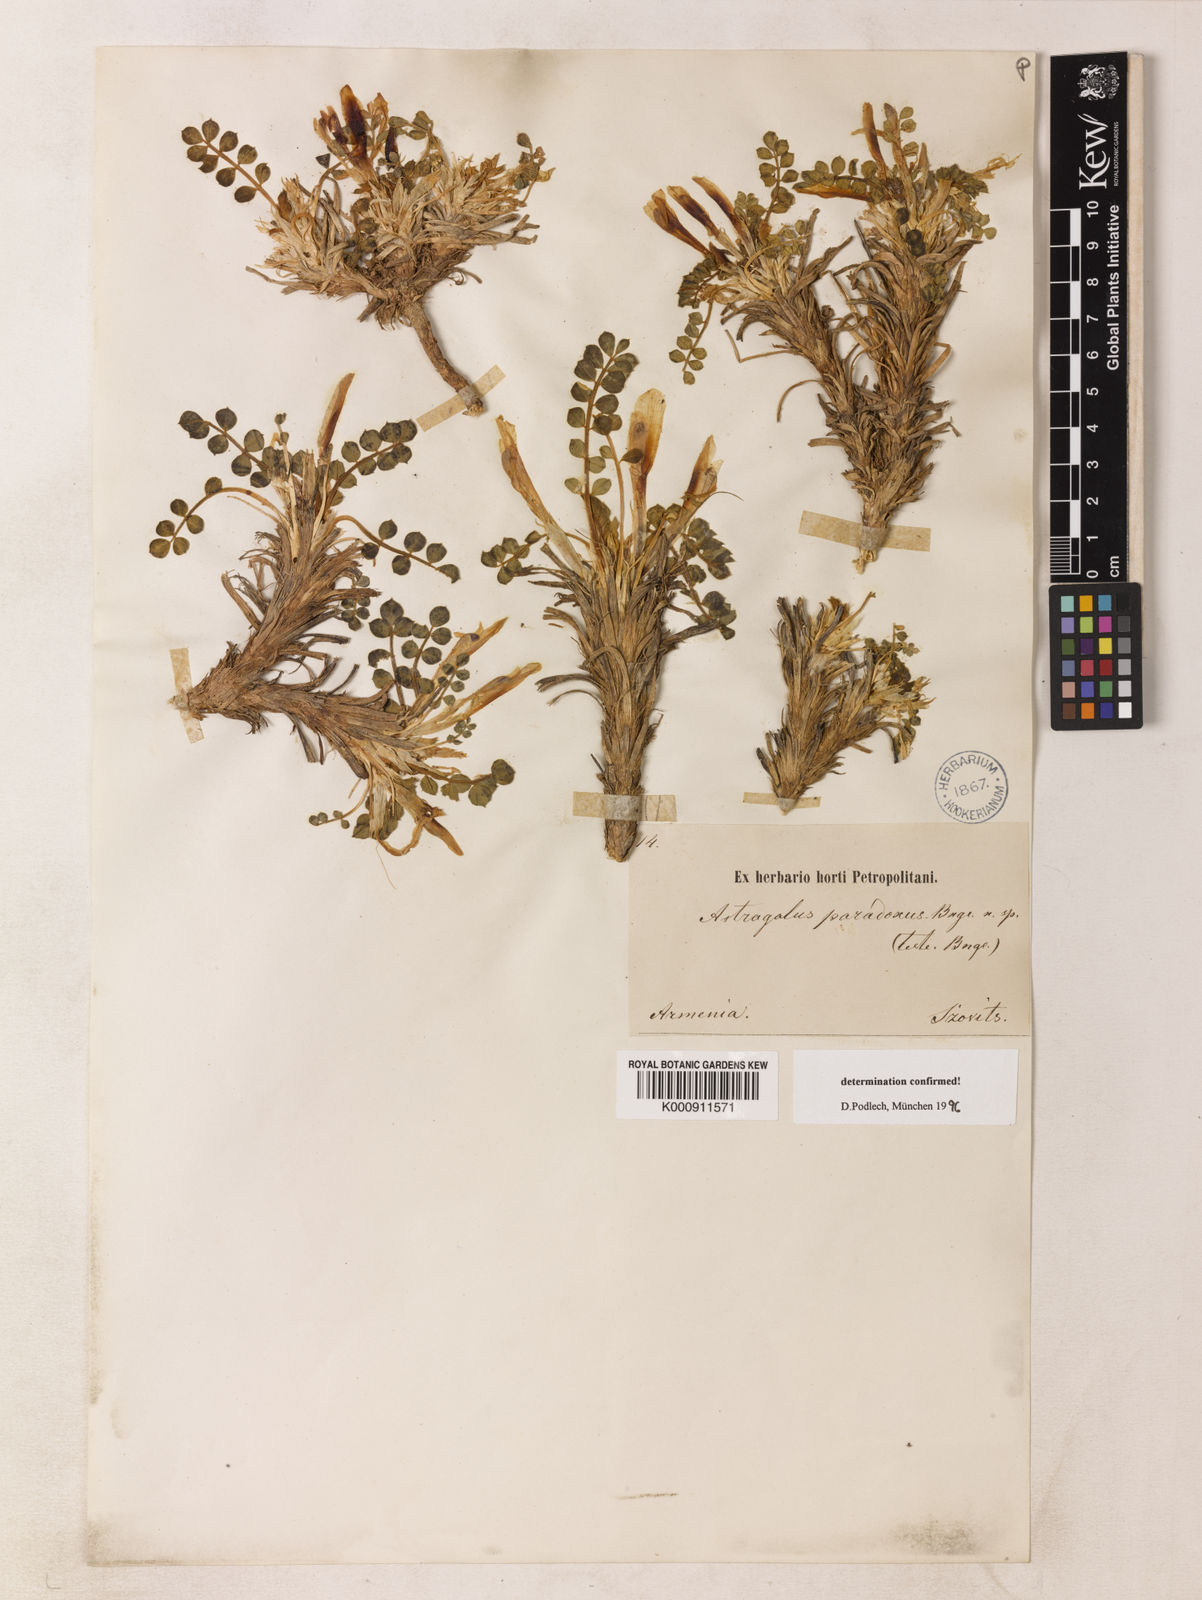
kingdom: Plantae
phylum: Tracheophyta
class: Magnoliopsida
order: Fabales
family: Fabaceae
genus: Astragalus
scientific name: Astragalus anserinifolius
